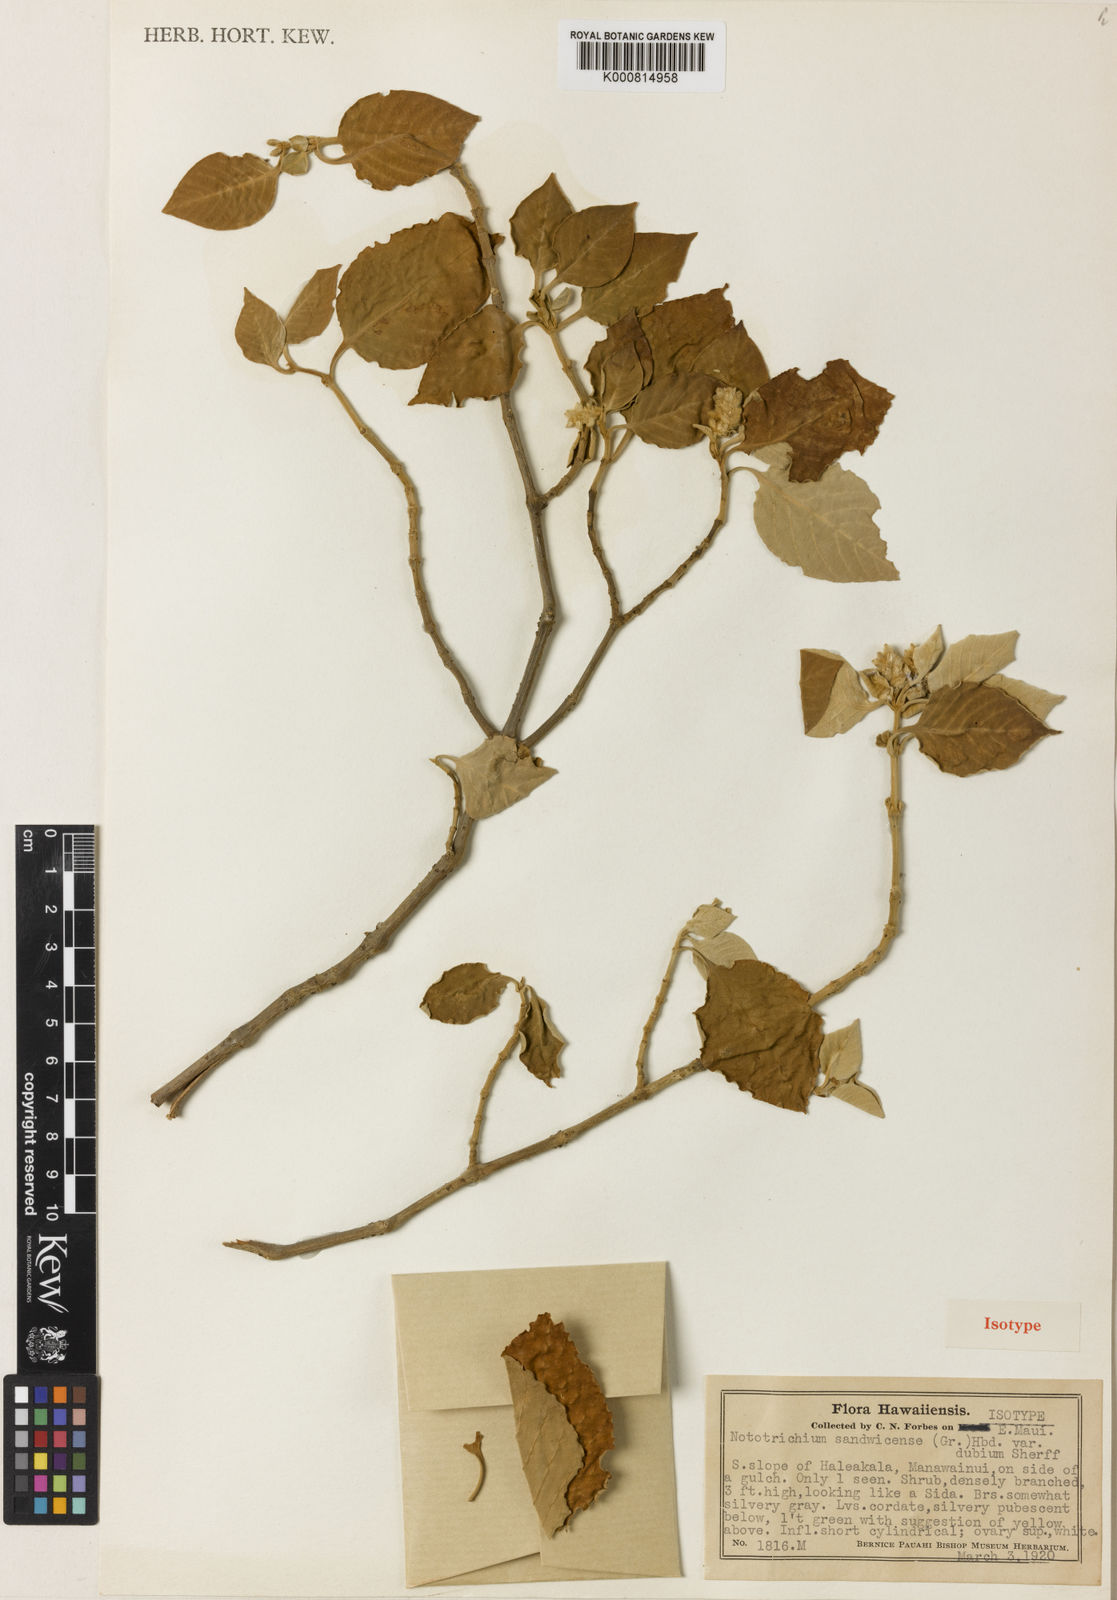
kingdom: Plantae
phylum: Tracheophyta
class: Magnoliopsida
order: Caryophyllales
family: Amaranthaceae
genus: Nototrichium
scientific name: Nototrichium
